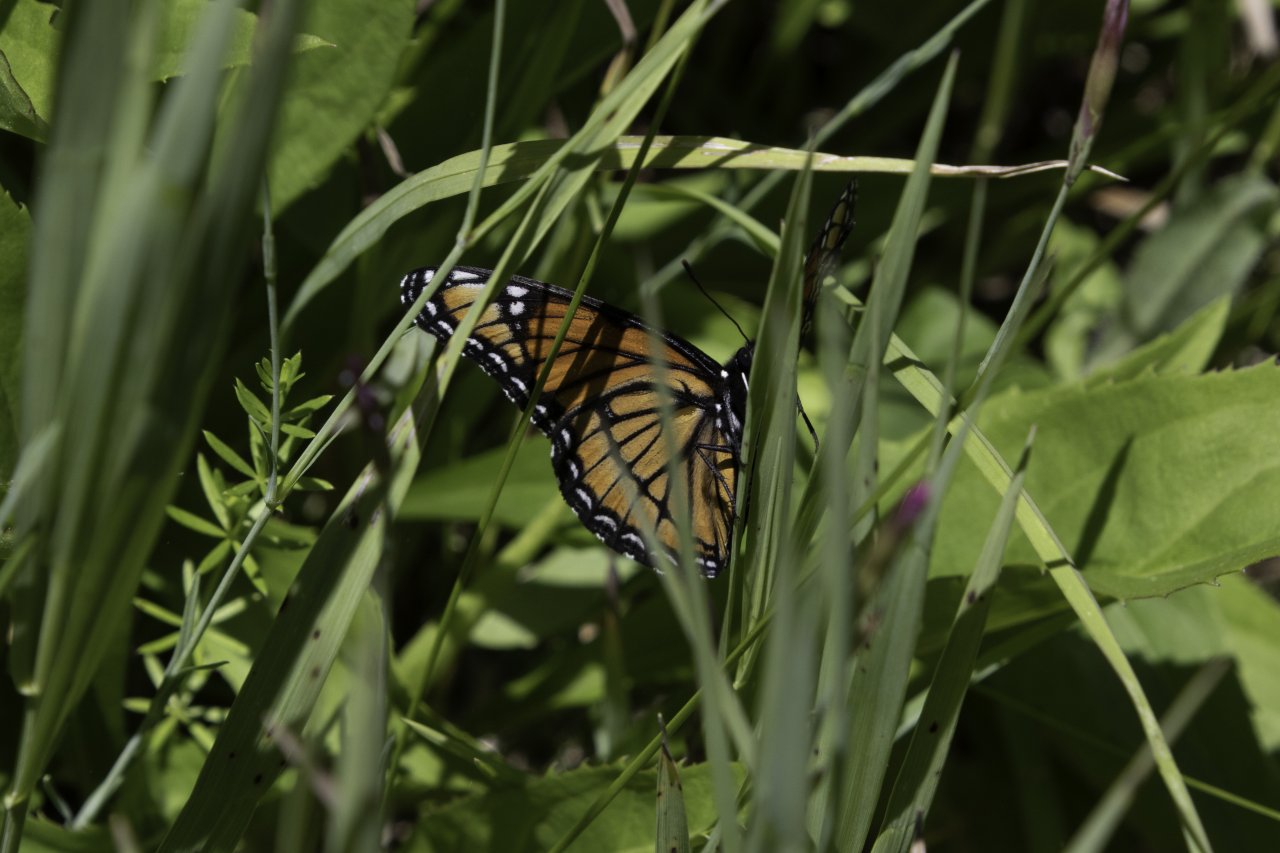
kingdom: Animalia
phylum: Arthropoda
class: Insecta
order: Lepidoptera
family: Nymphalidae
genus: Limenitis
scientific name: Limenitis archippus
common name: Viceroy
